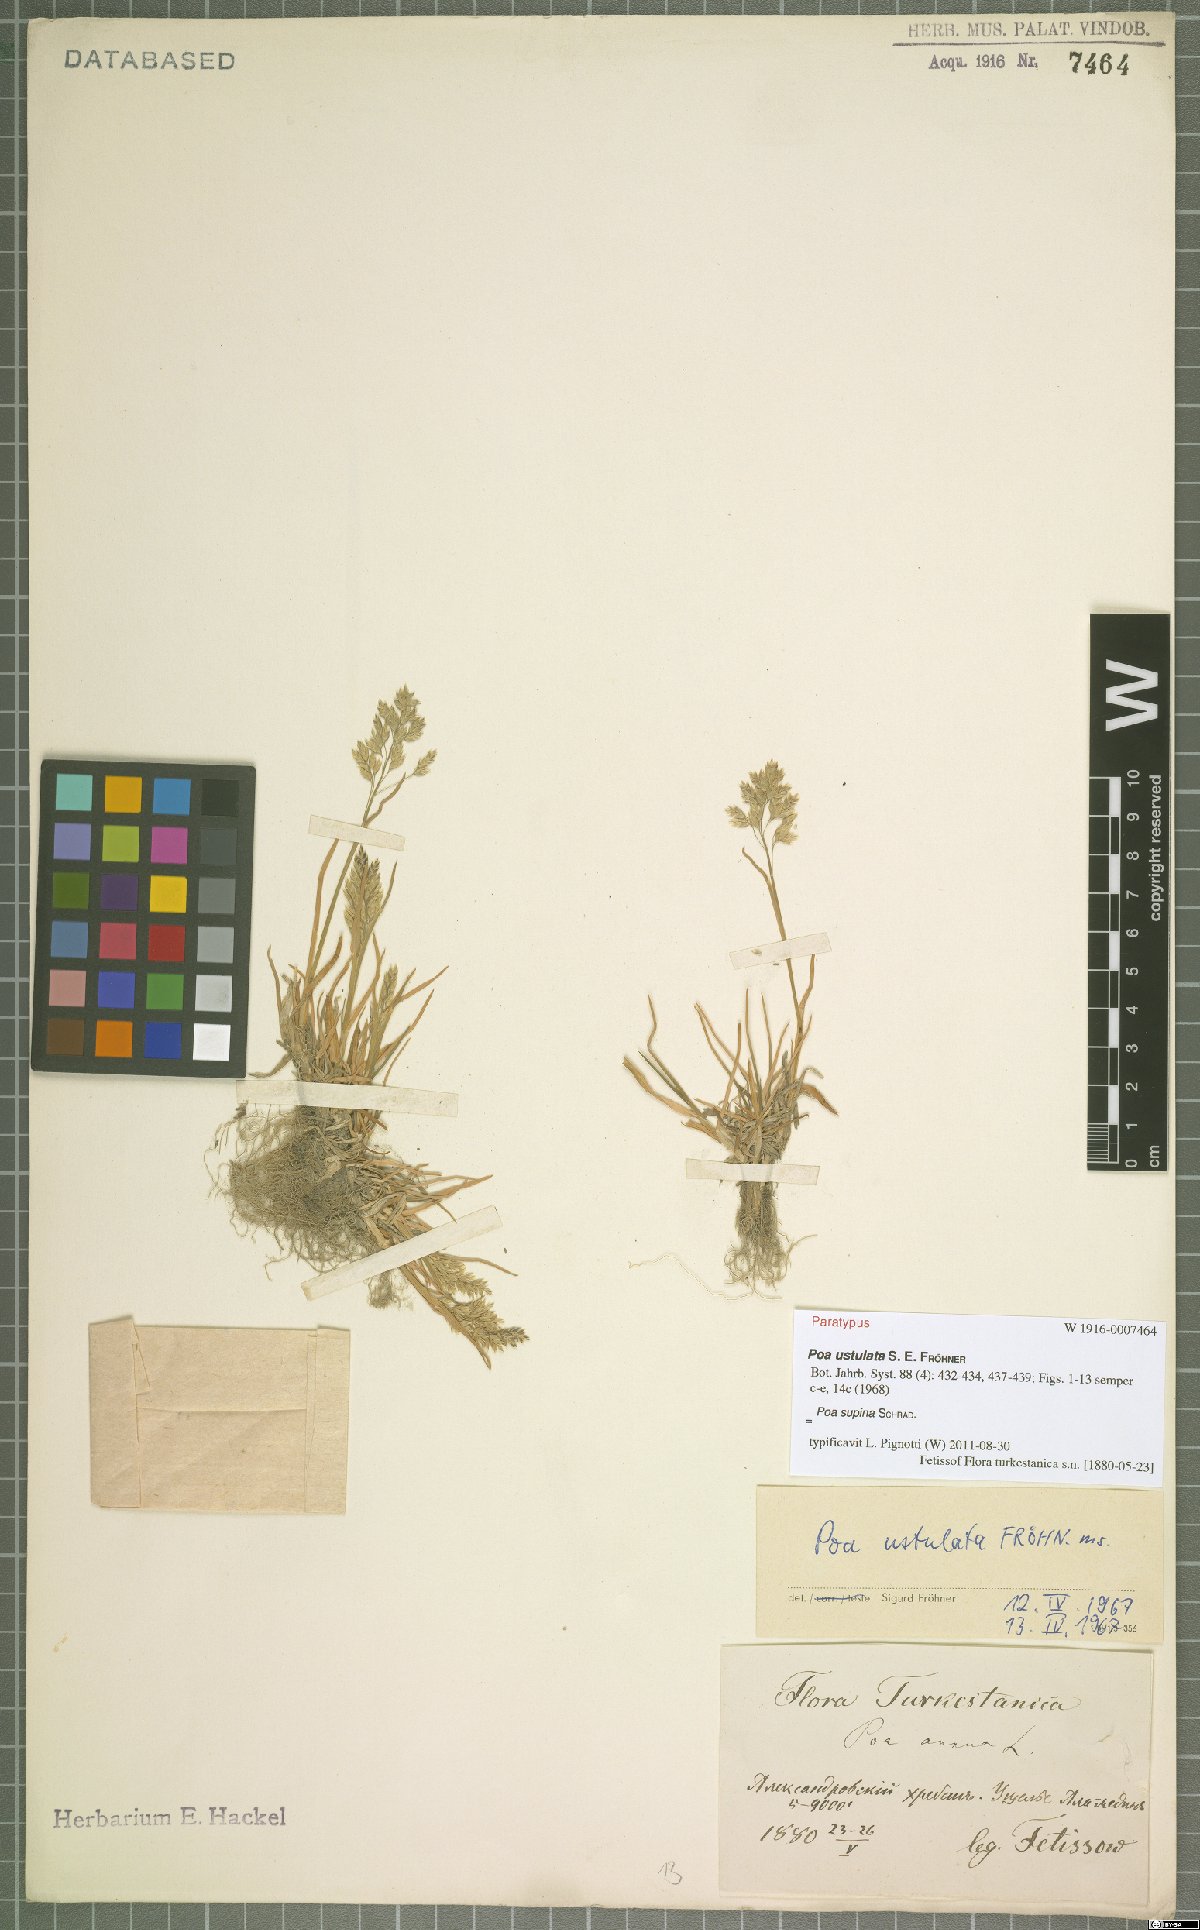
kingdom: Plantae
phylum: Tracheophyta
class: Liliopsida
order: Poales
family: Poaceae
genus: Poa
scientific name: Poa supina
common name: Supina bluegrass
